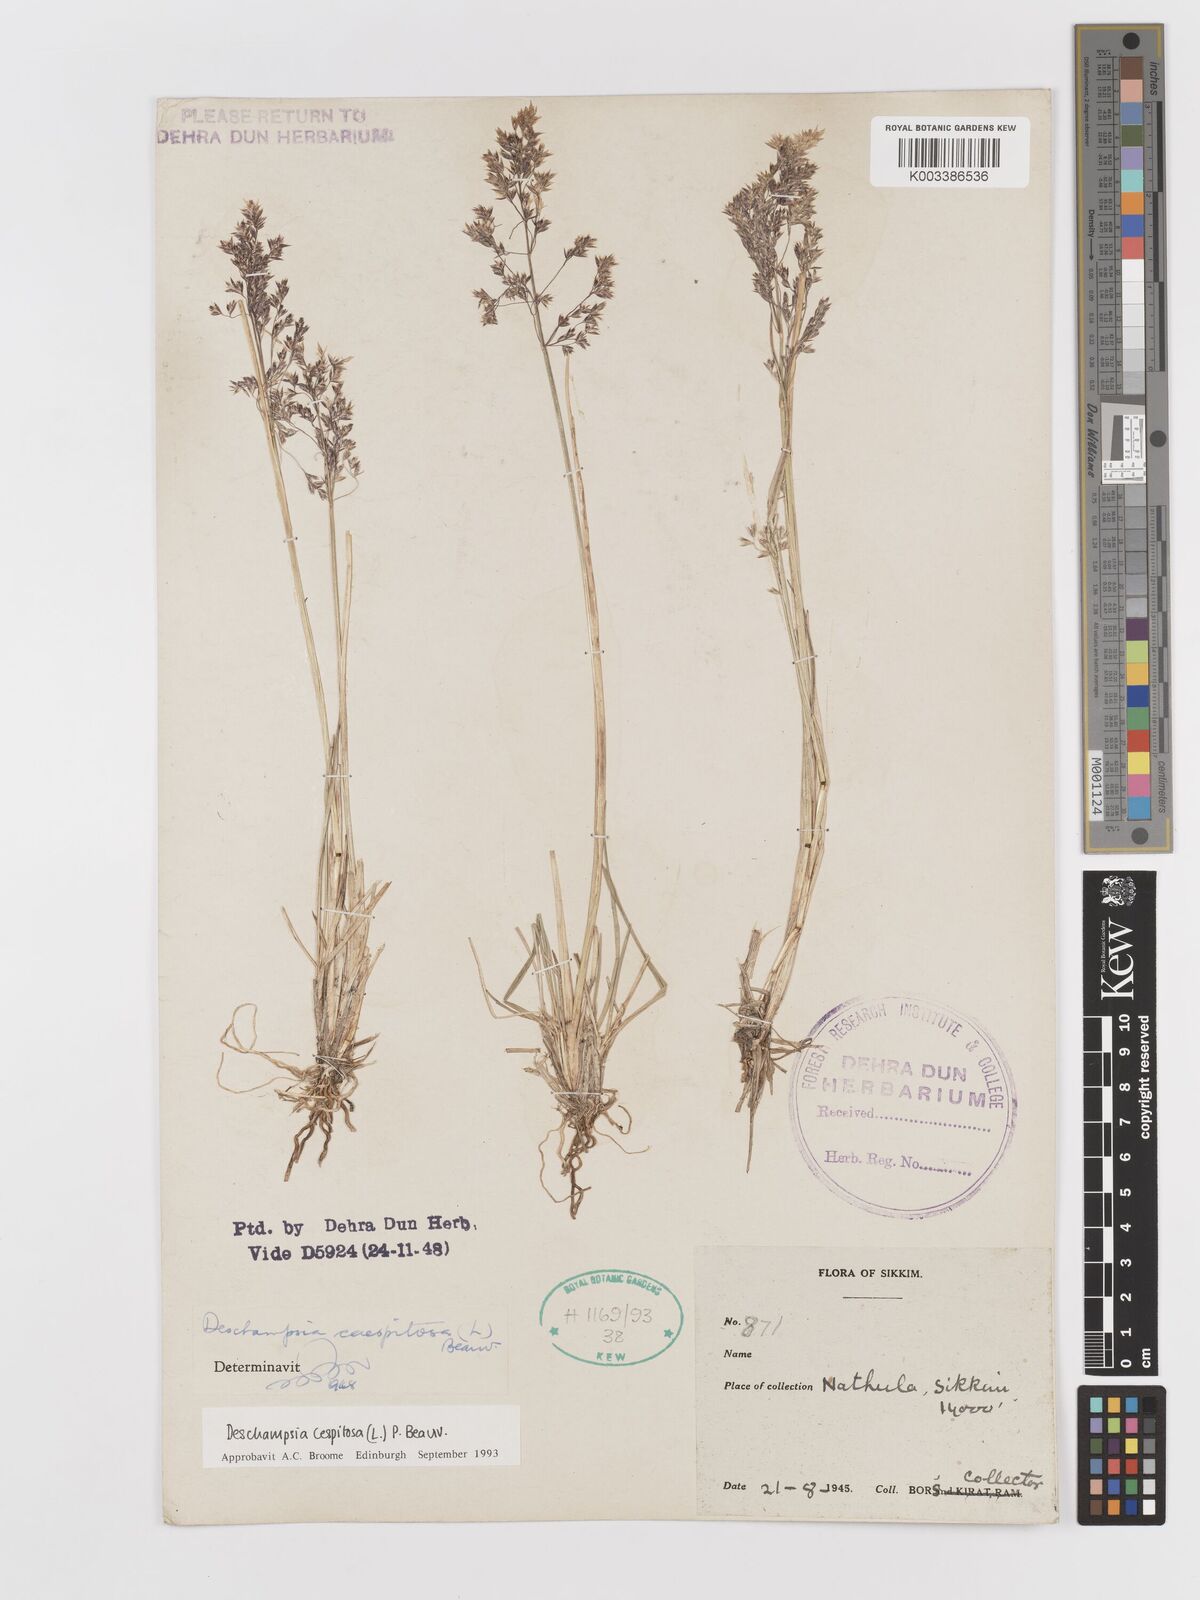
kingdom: Plantae
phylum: Tracheophyta
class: Liliopsida
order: Poales
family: Poaceae
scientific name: Poaceae
